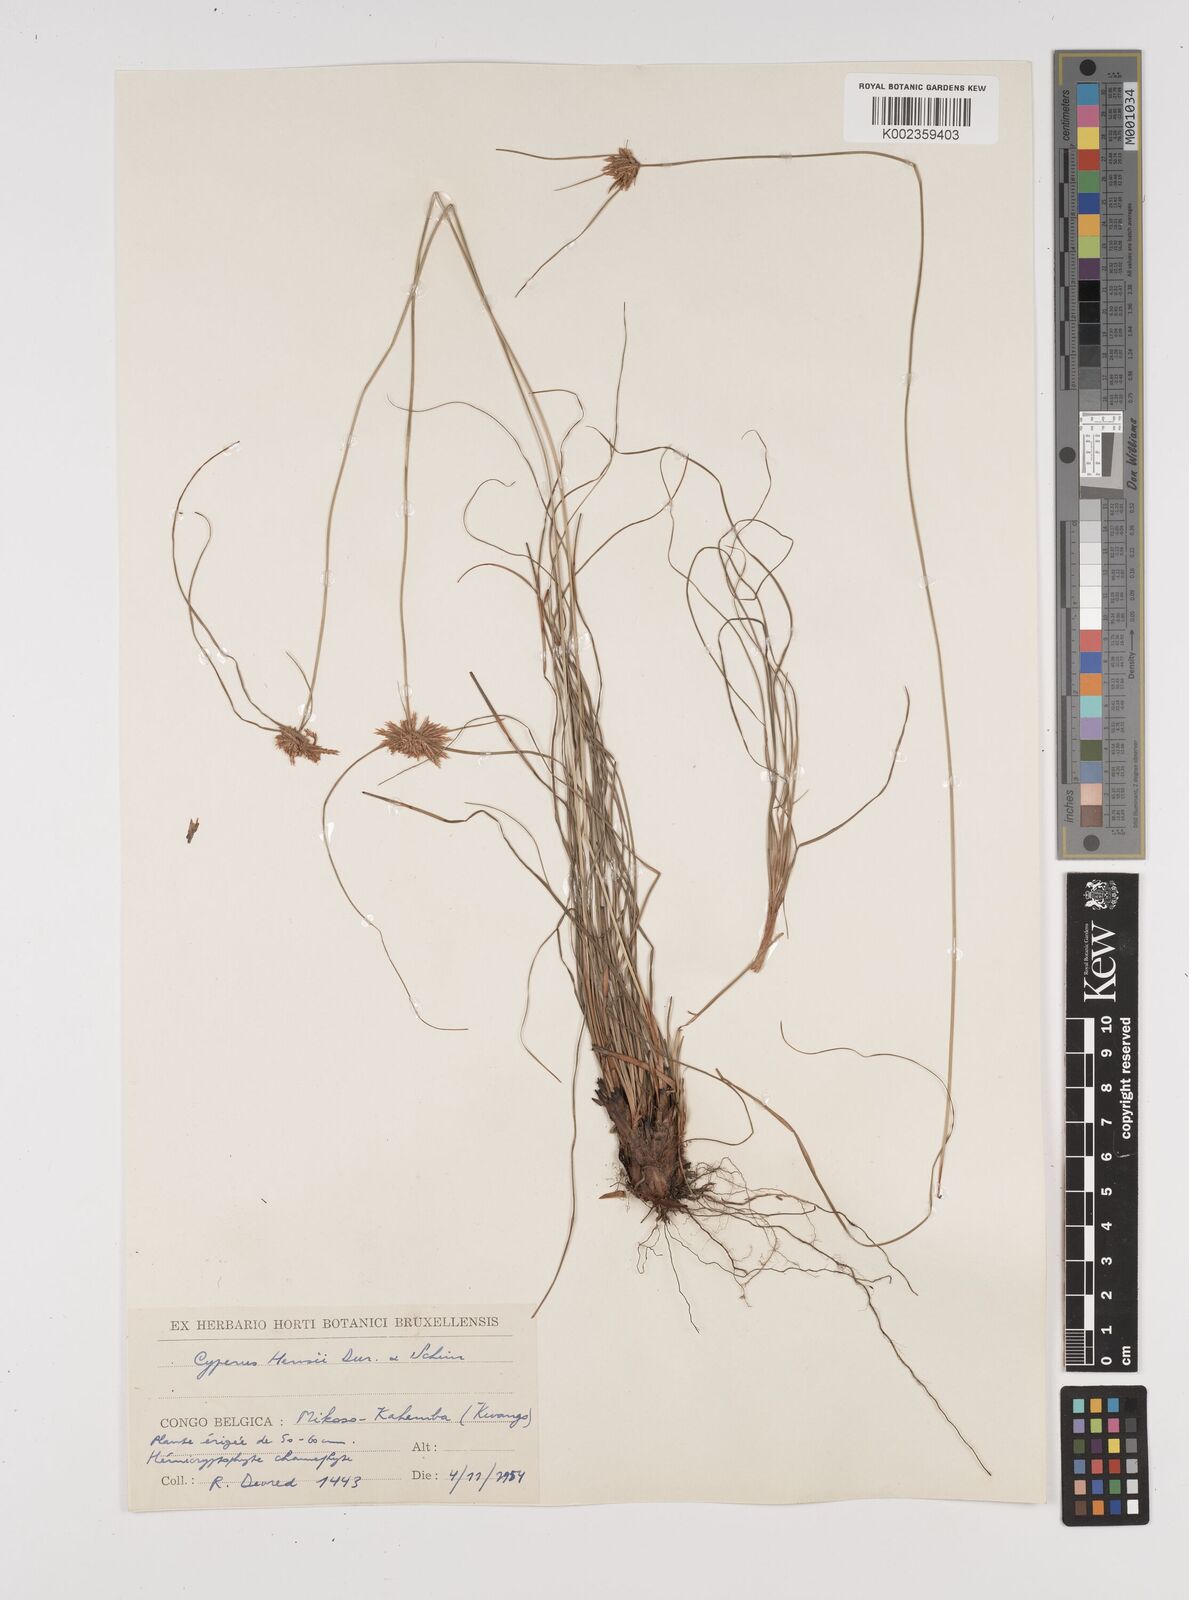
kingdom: Plantae
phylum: Tracheophyta
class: Liliopsida
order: Poales
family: Cyperaceae
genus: Cyperus
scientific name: Cyperus
